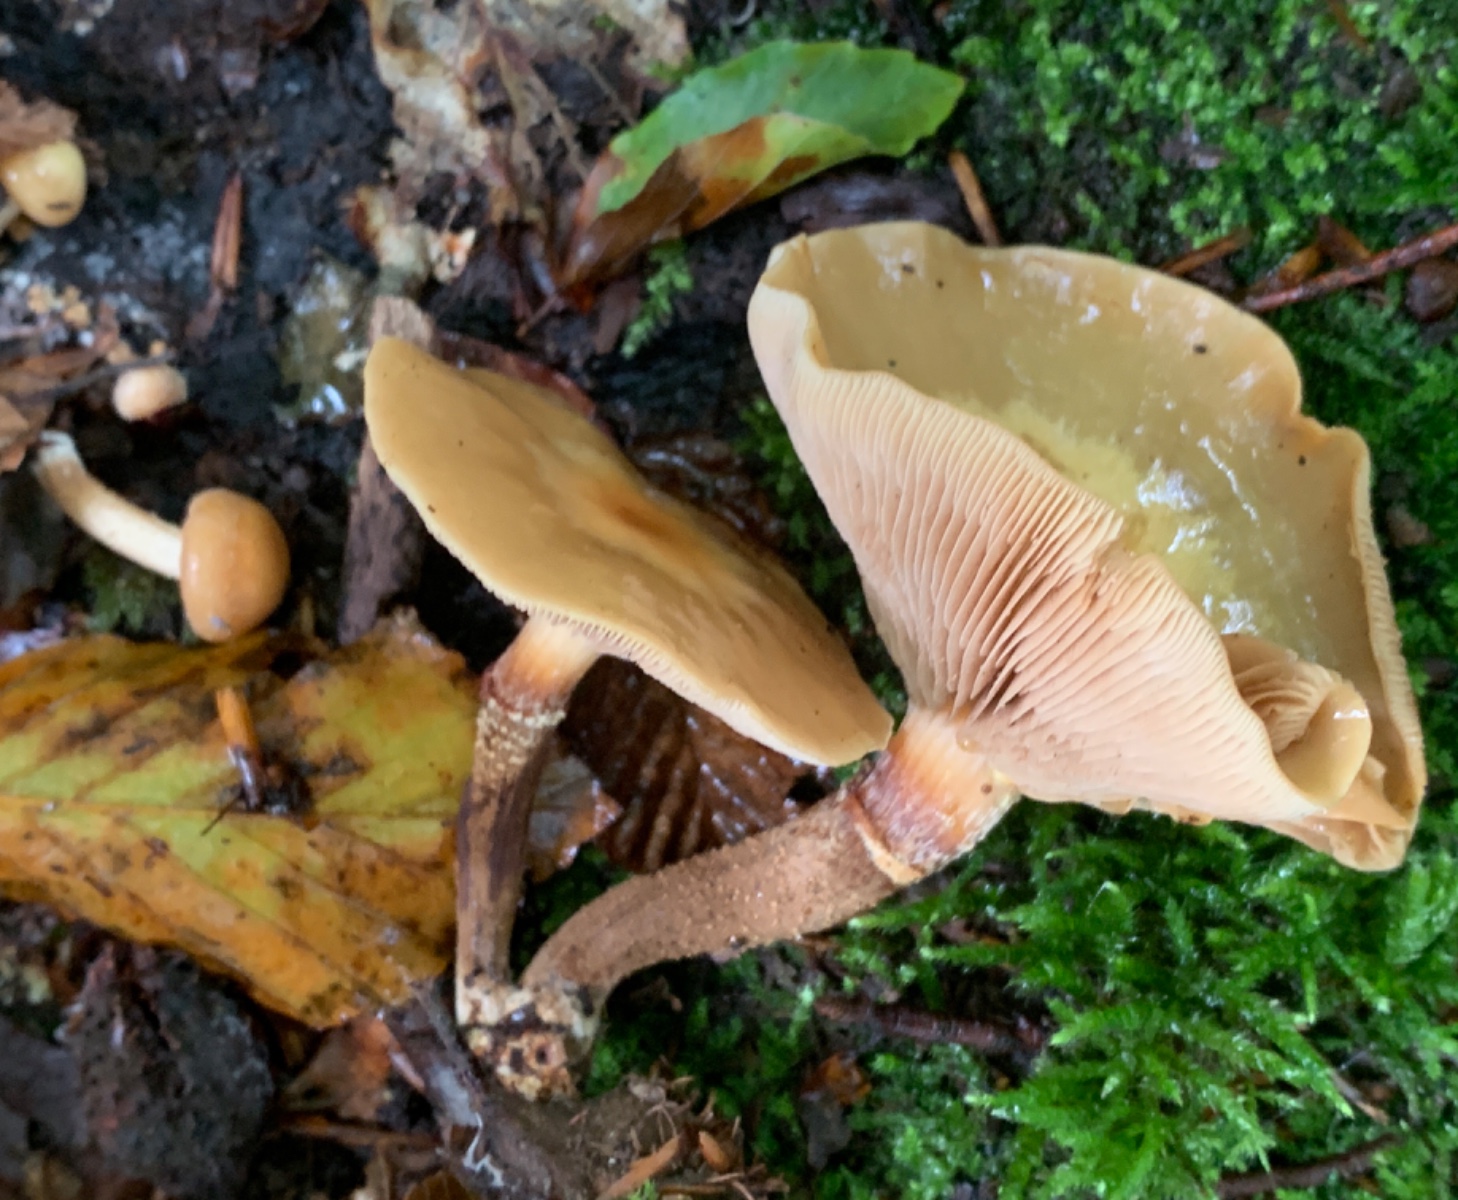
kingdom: Fungi
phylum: Basidiomycota
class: Agaricomycetes
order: Agaricales
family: Strophariaceae
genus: Kuehneromyces
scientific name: Kuehneromyces mutabilis
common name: foranderlig skælhat
